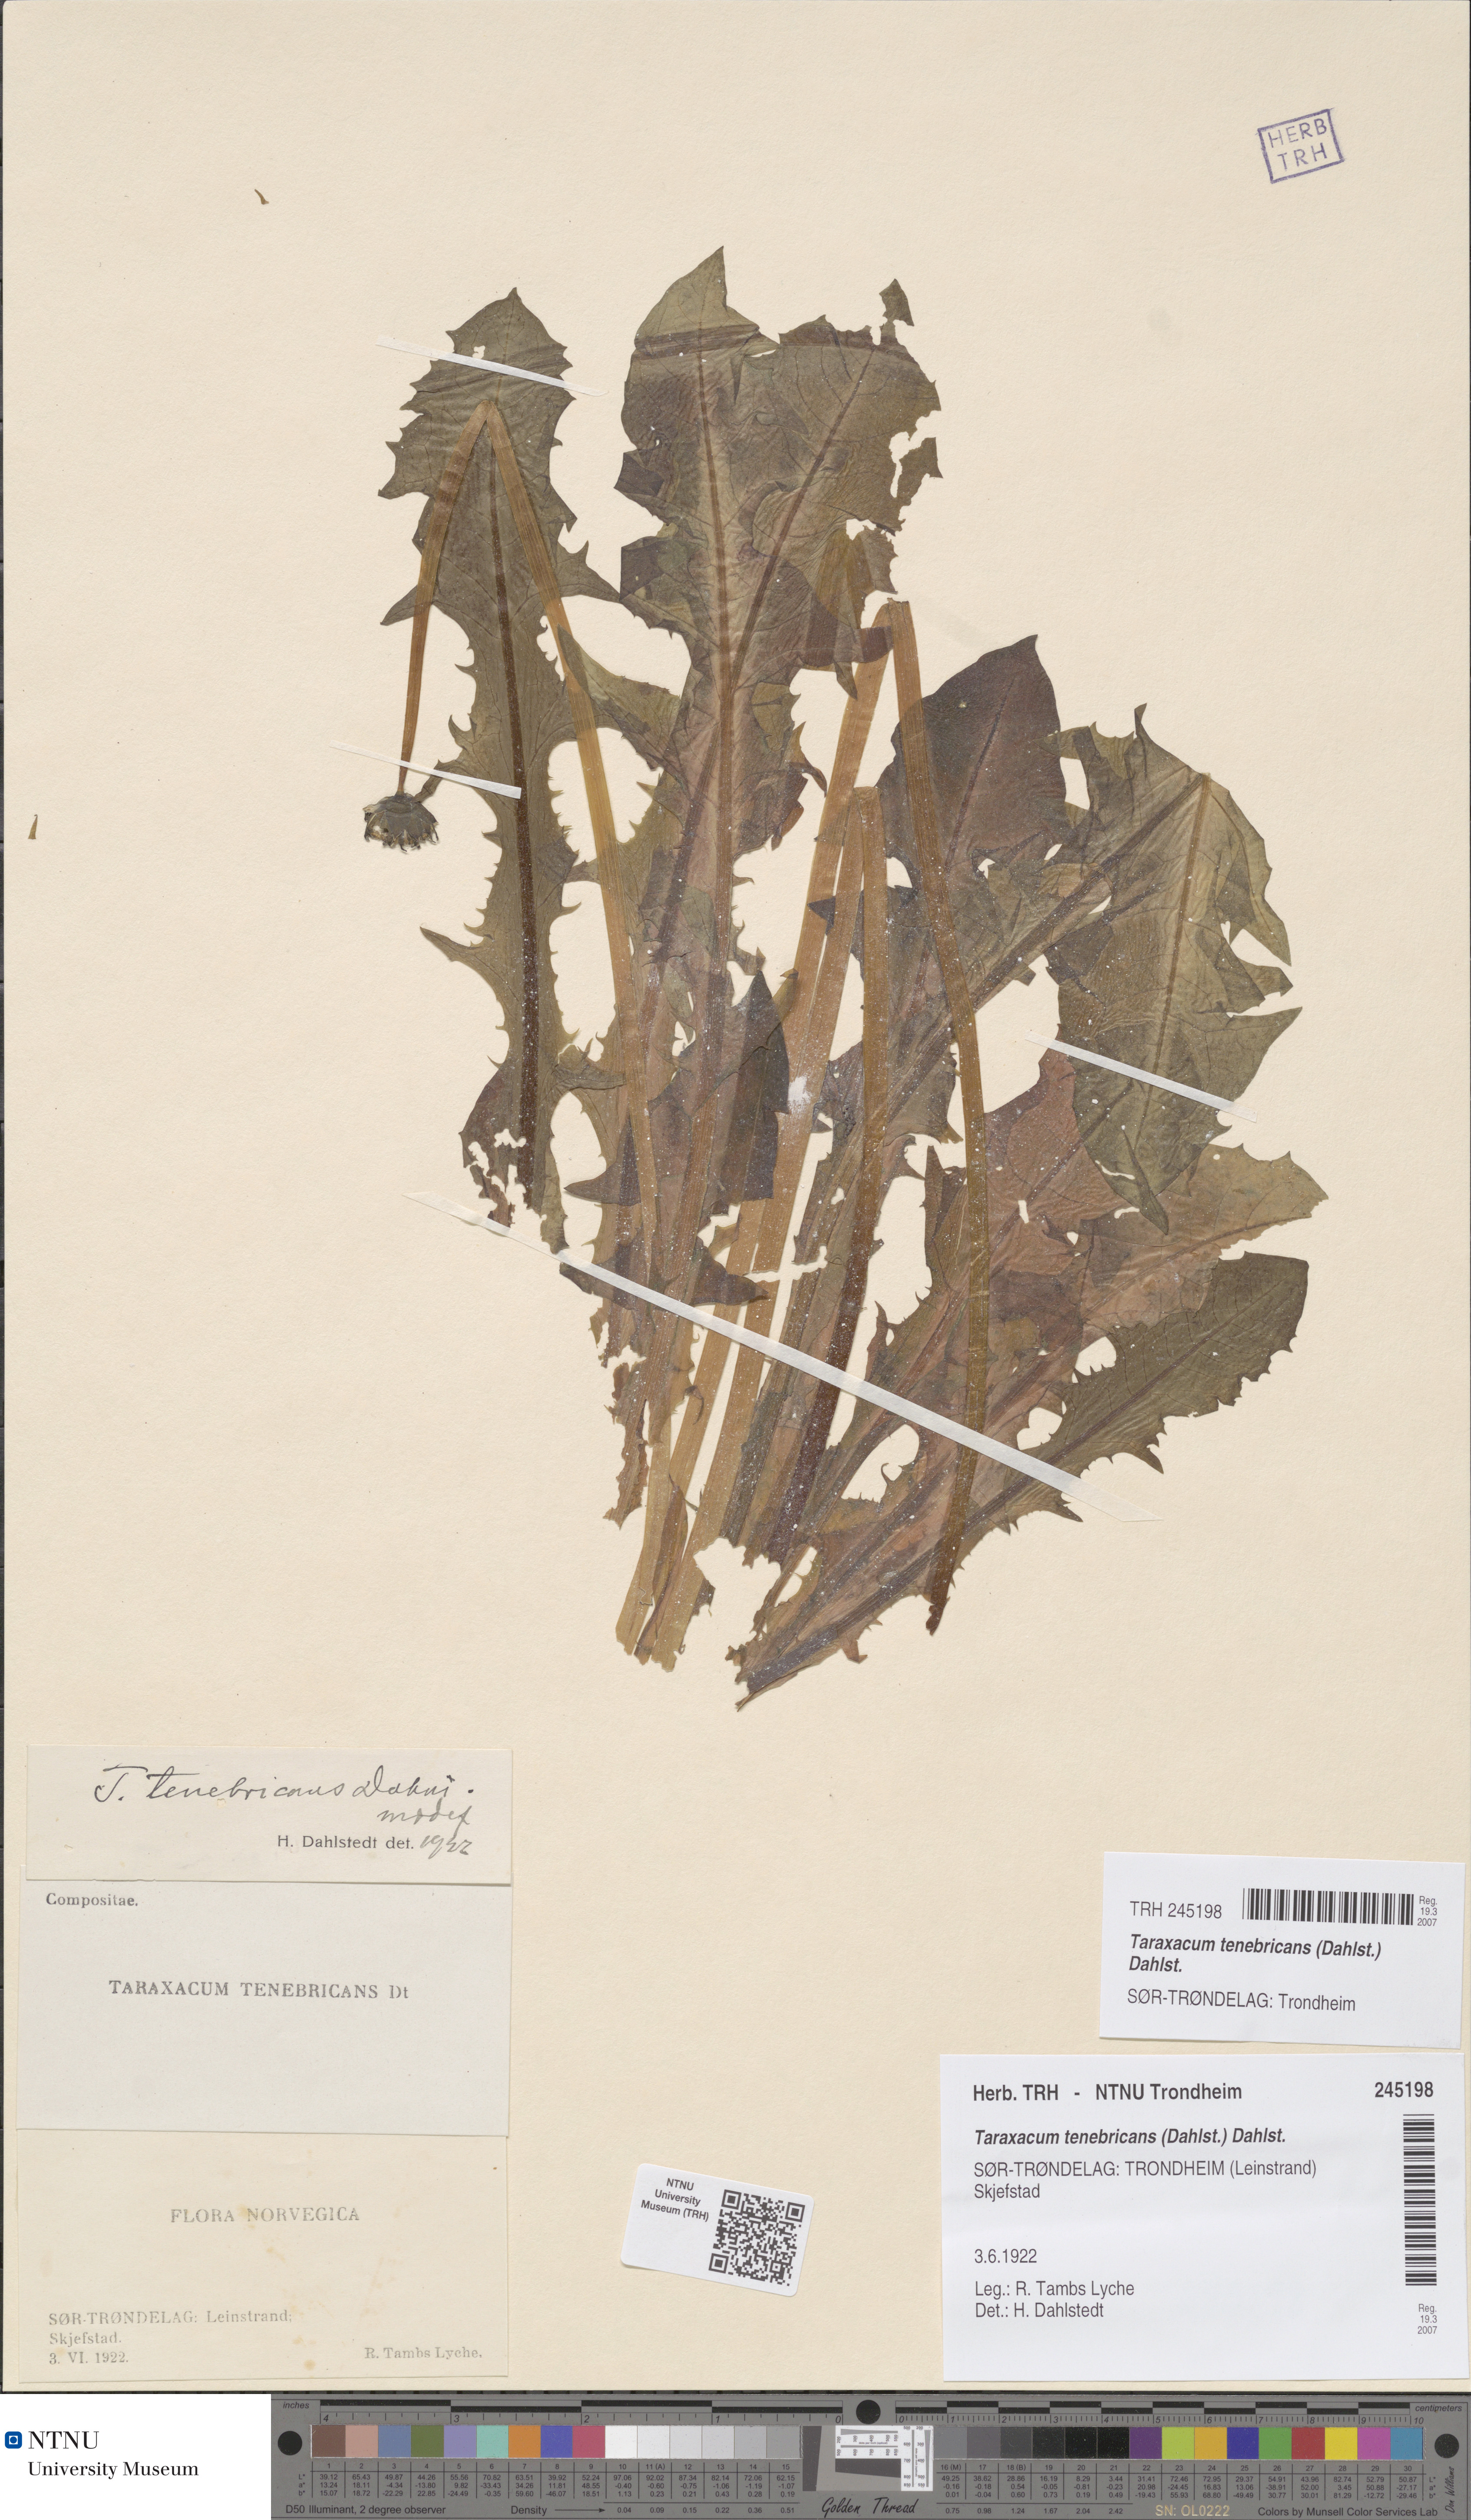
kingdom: Plantae
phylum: Tracheophyta
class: Magnoliopsida
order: Asterales
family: Asteraceae
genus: Taraxacum
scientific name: Taraxacum tenebricans
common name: Shiny-leaved dandelion
